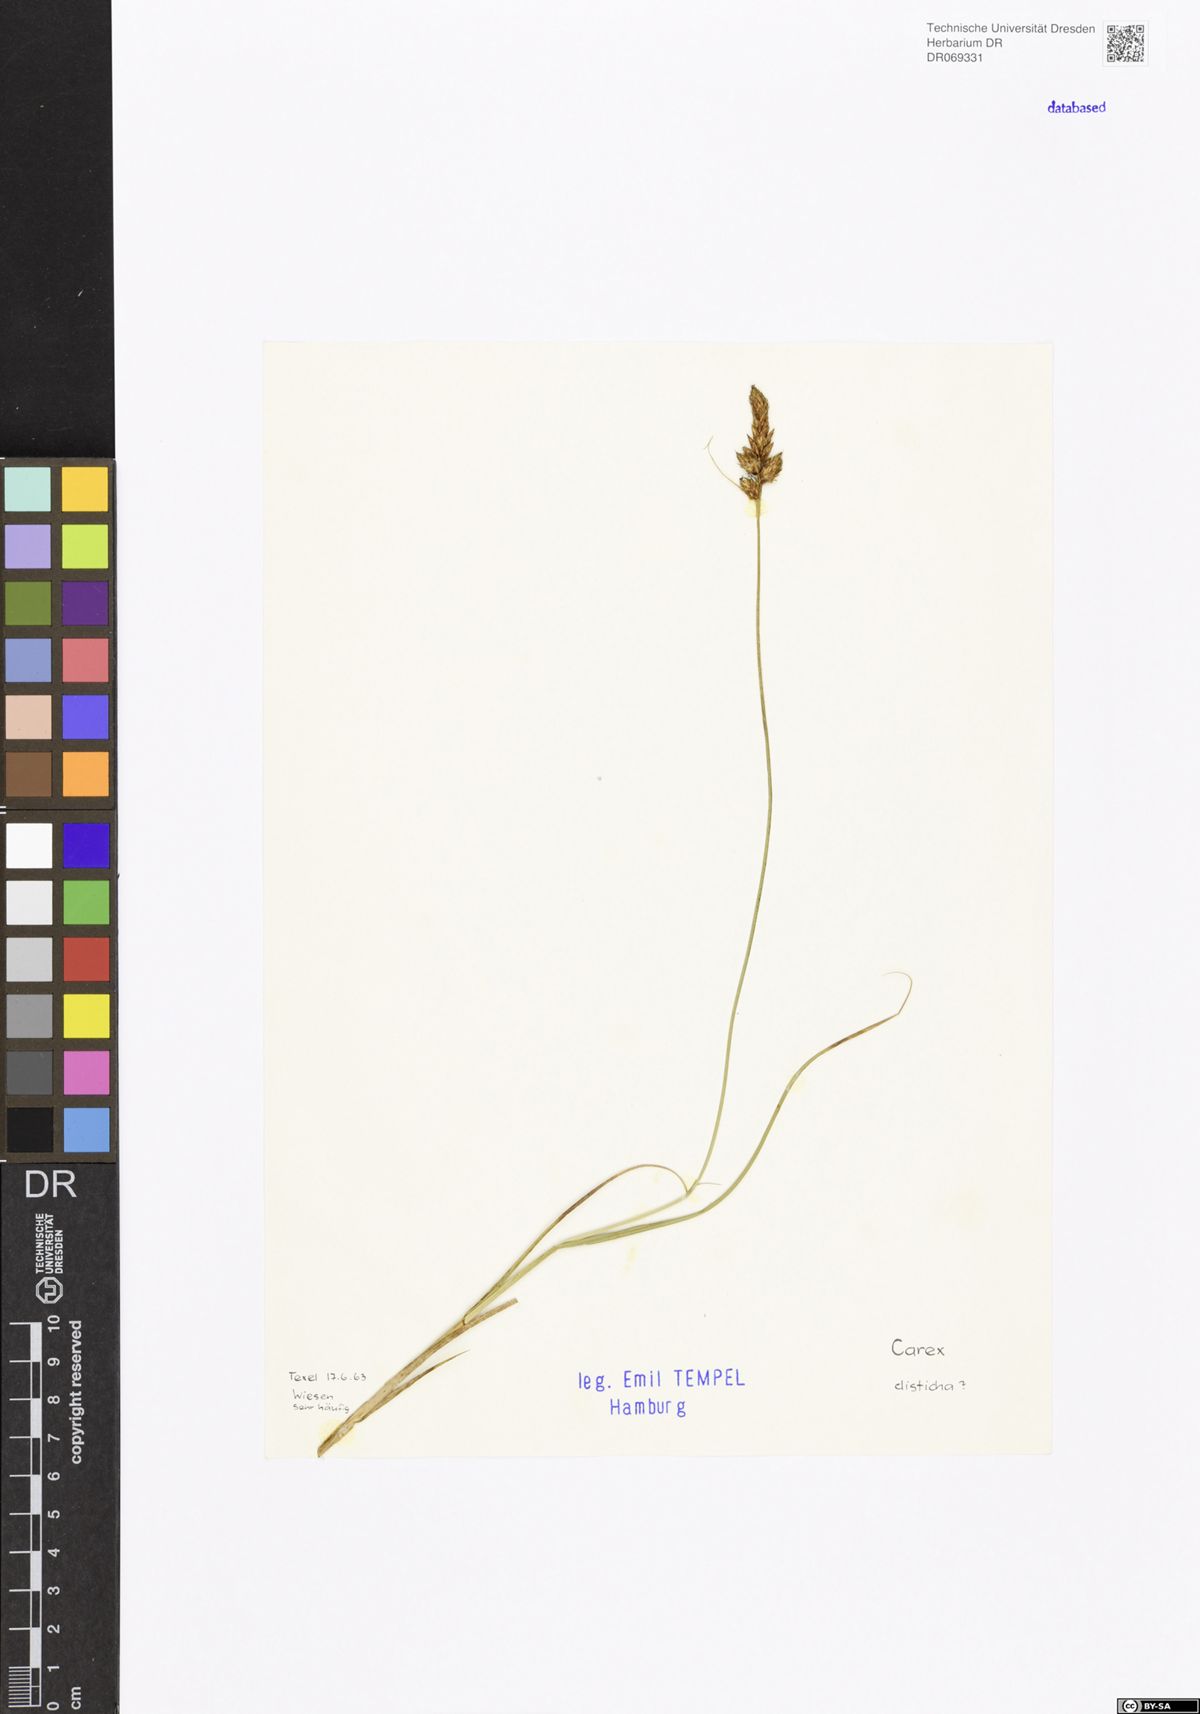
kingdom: Plantae
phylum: Tracheophyta
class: Liliopsida
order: Poales
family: Cyperaceae
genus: Carex
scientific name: Carex disticha
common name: Brown sedge
